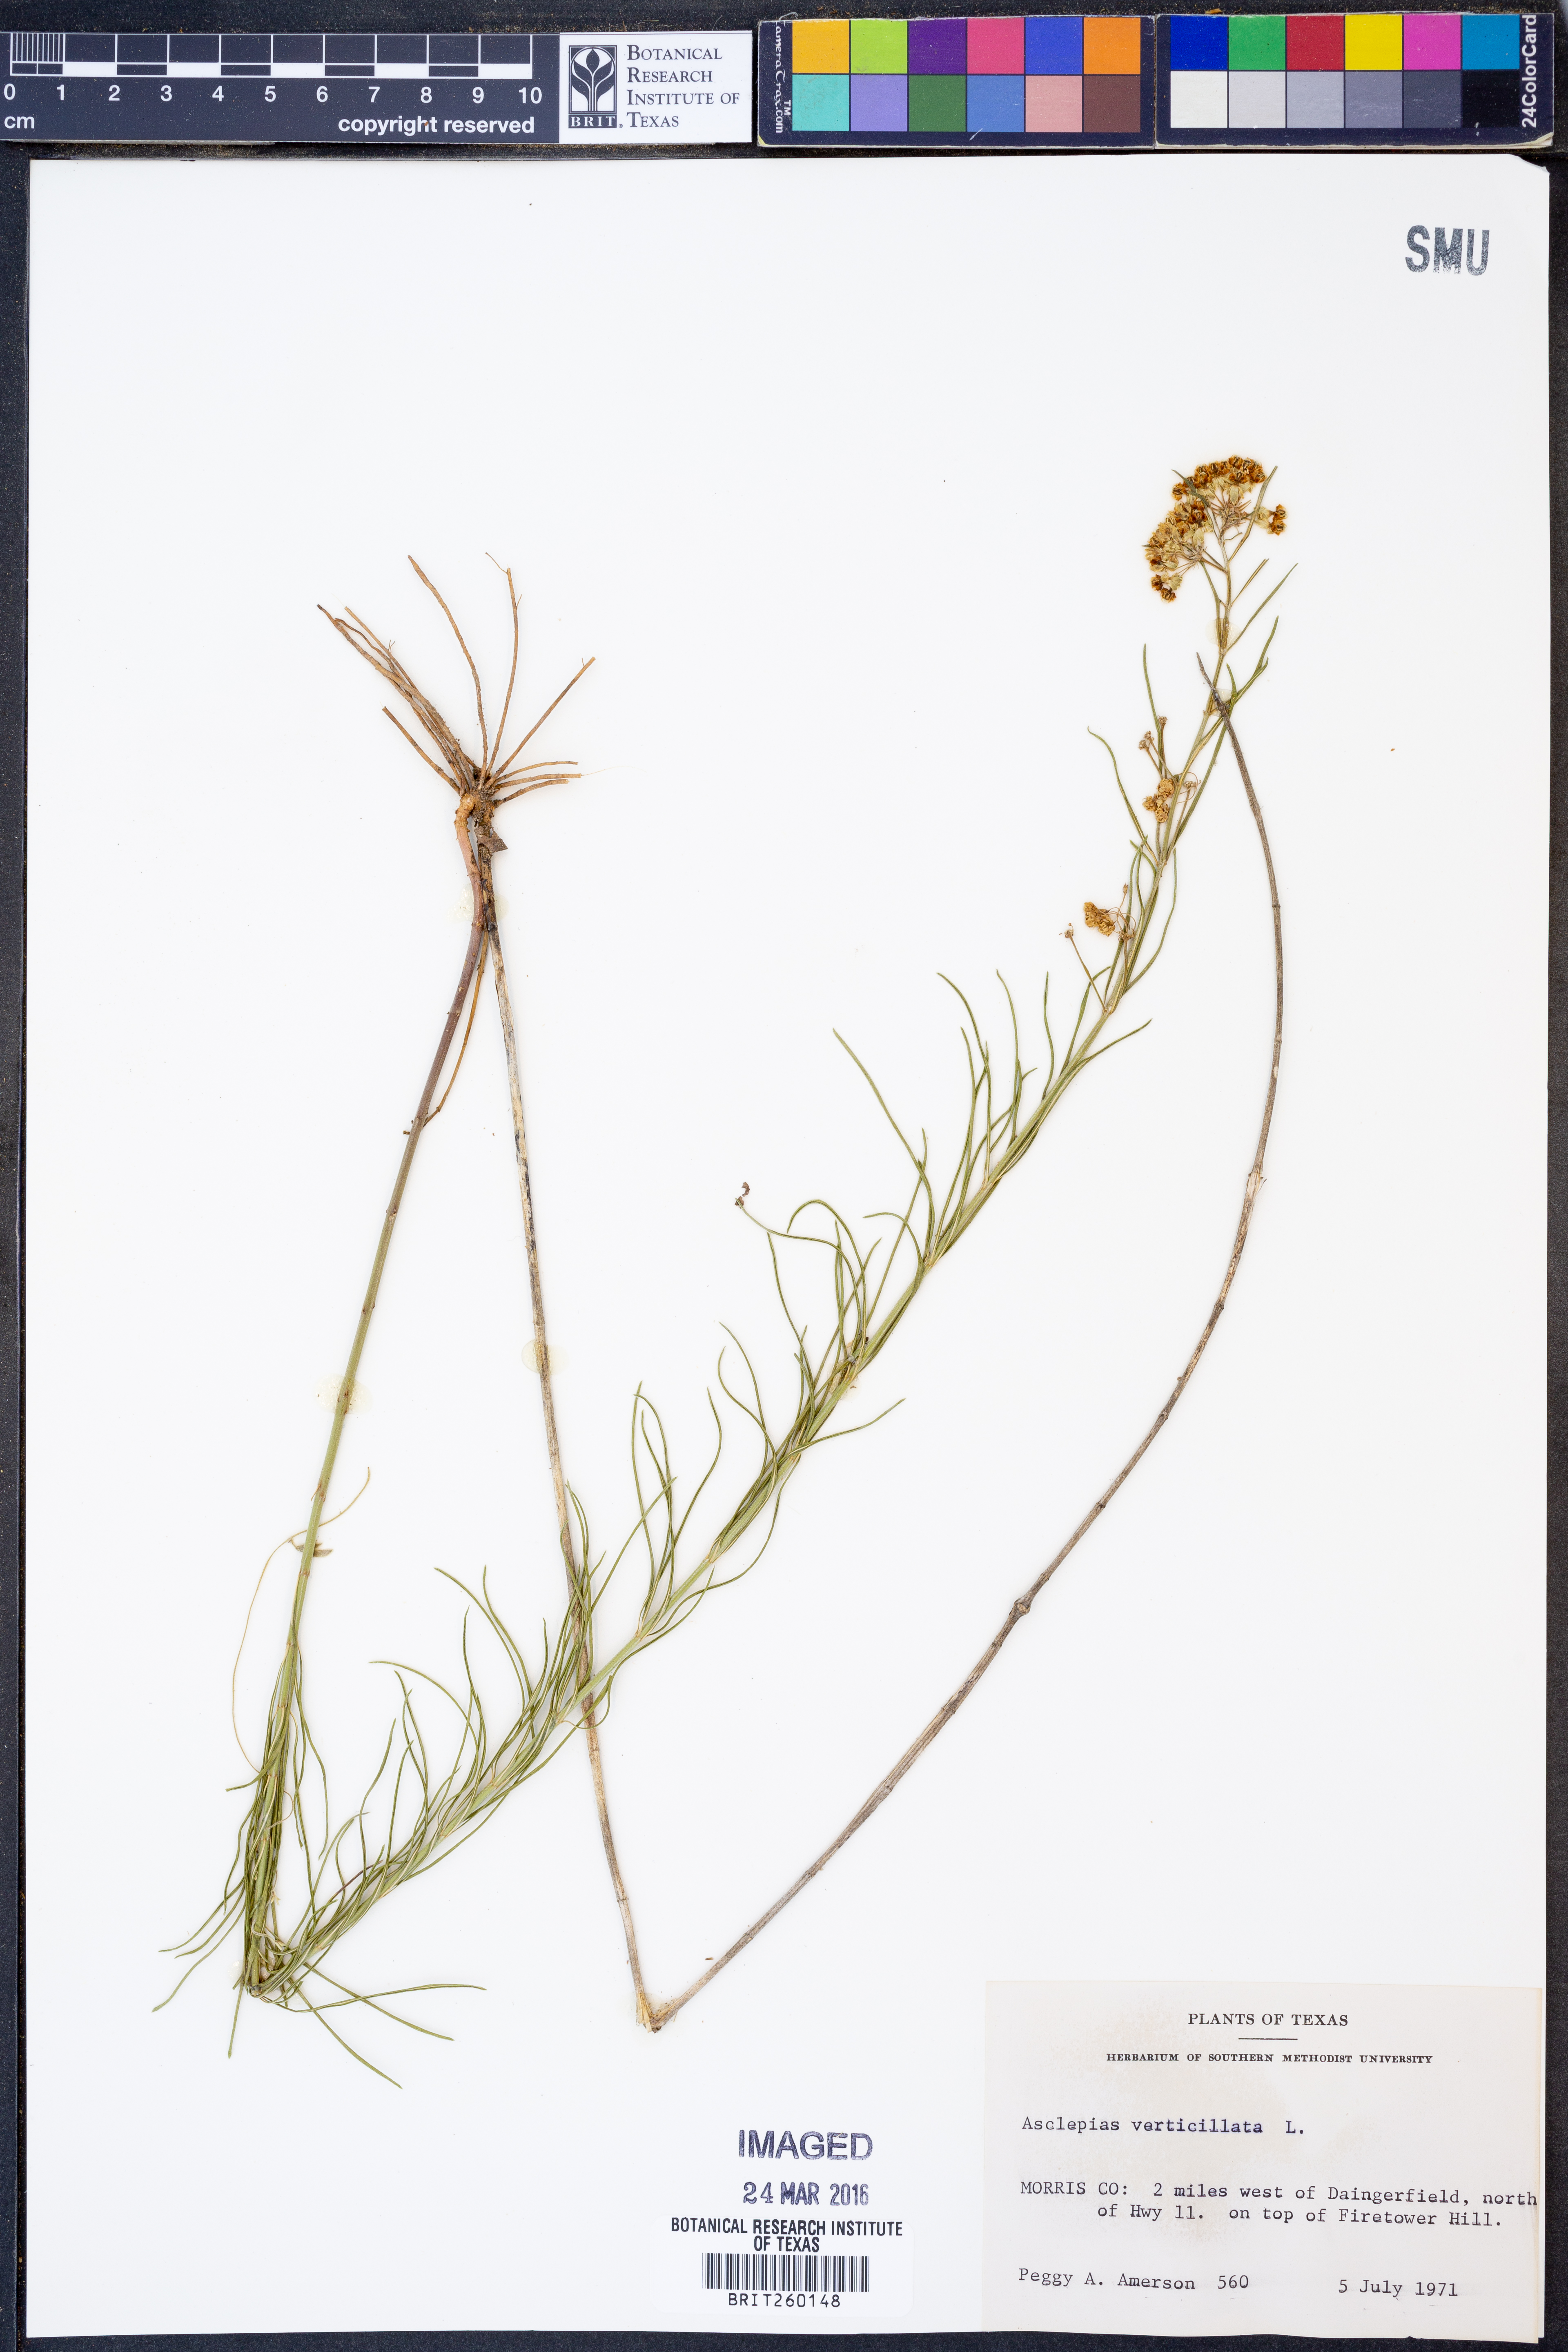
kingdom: Plantae
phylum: Tracheophyta
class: Magnoliopsida
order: Gentianales
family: Apocynaceae
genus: Asclepias
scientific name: Asclepias verticillata
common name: Eastern whorled milkweed
